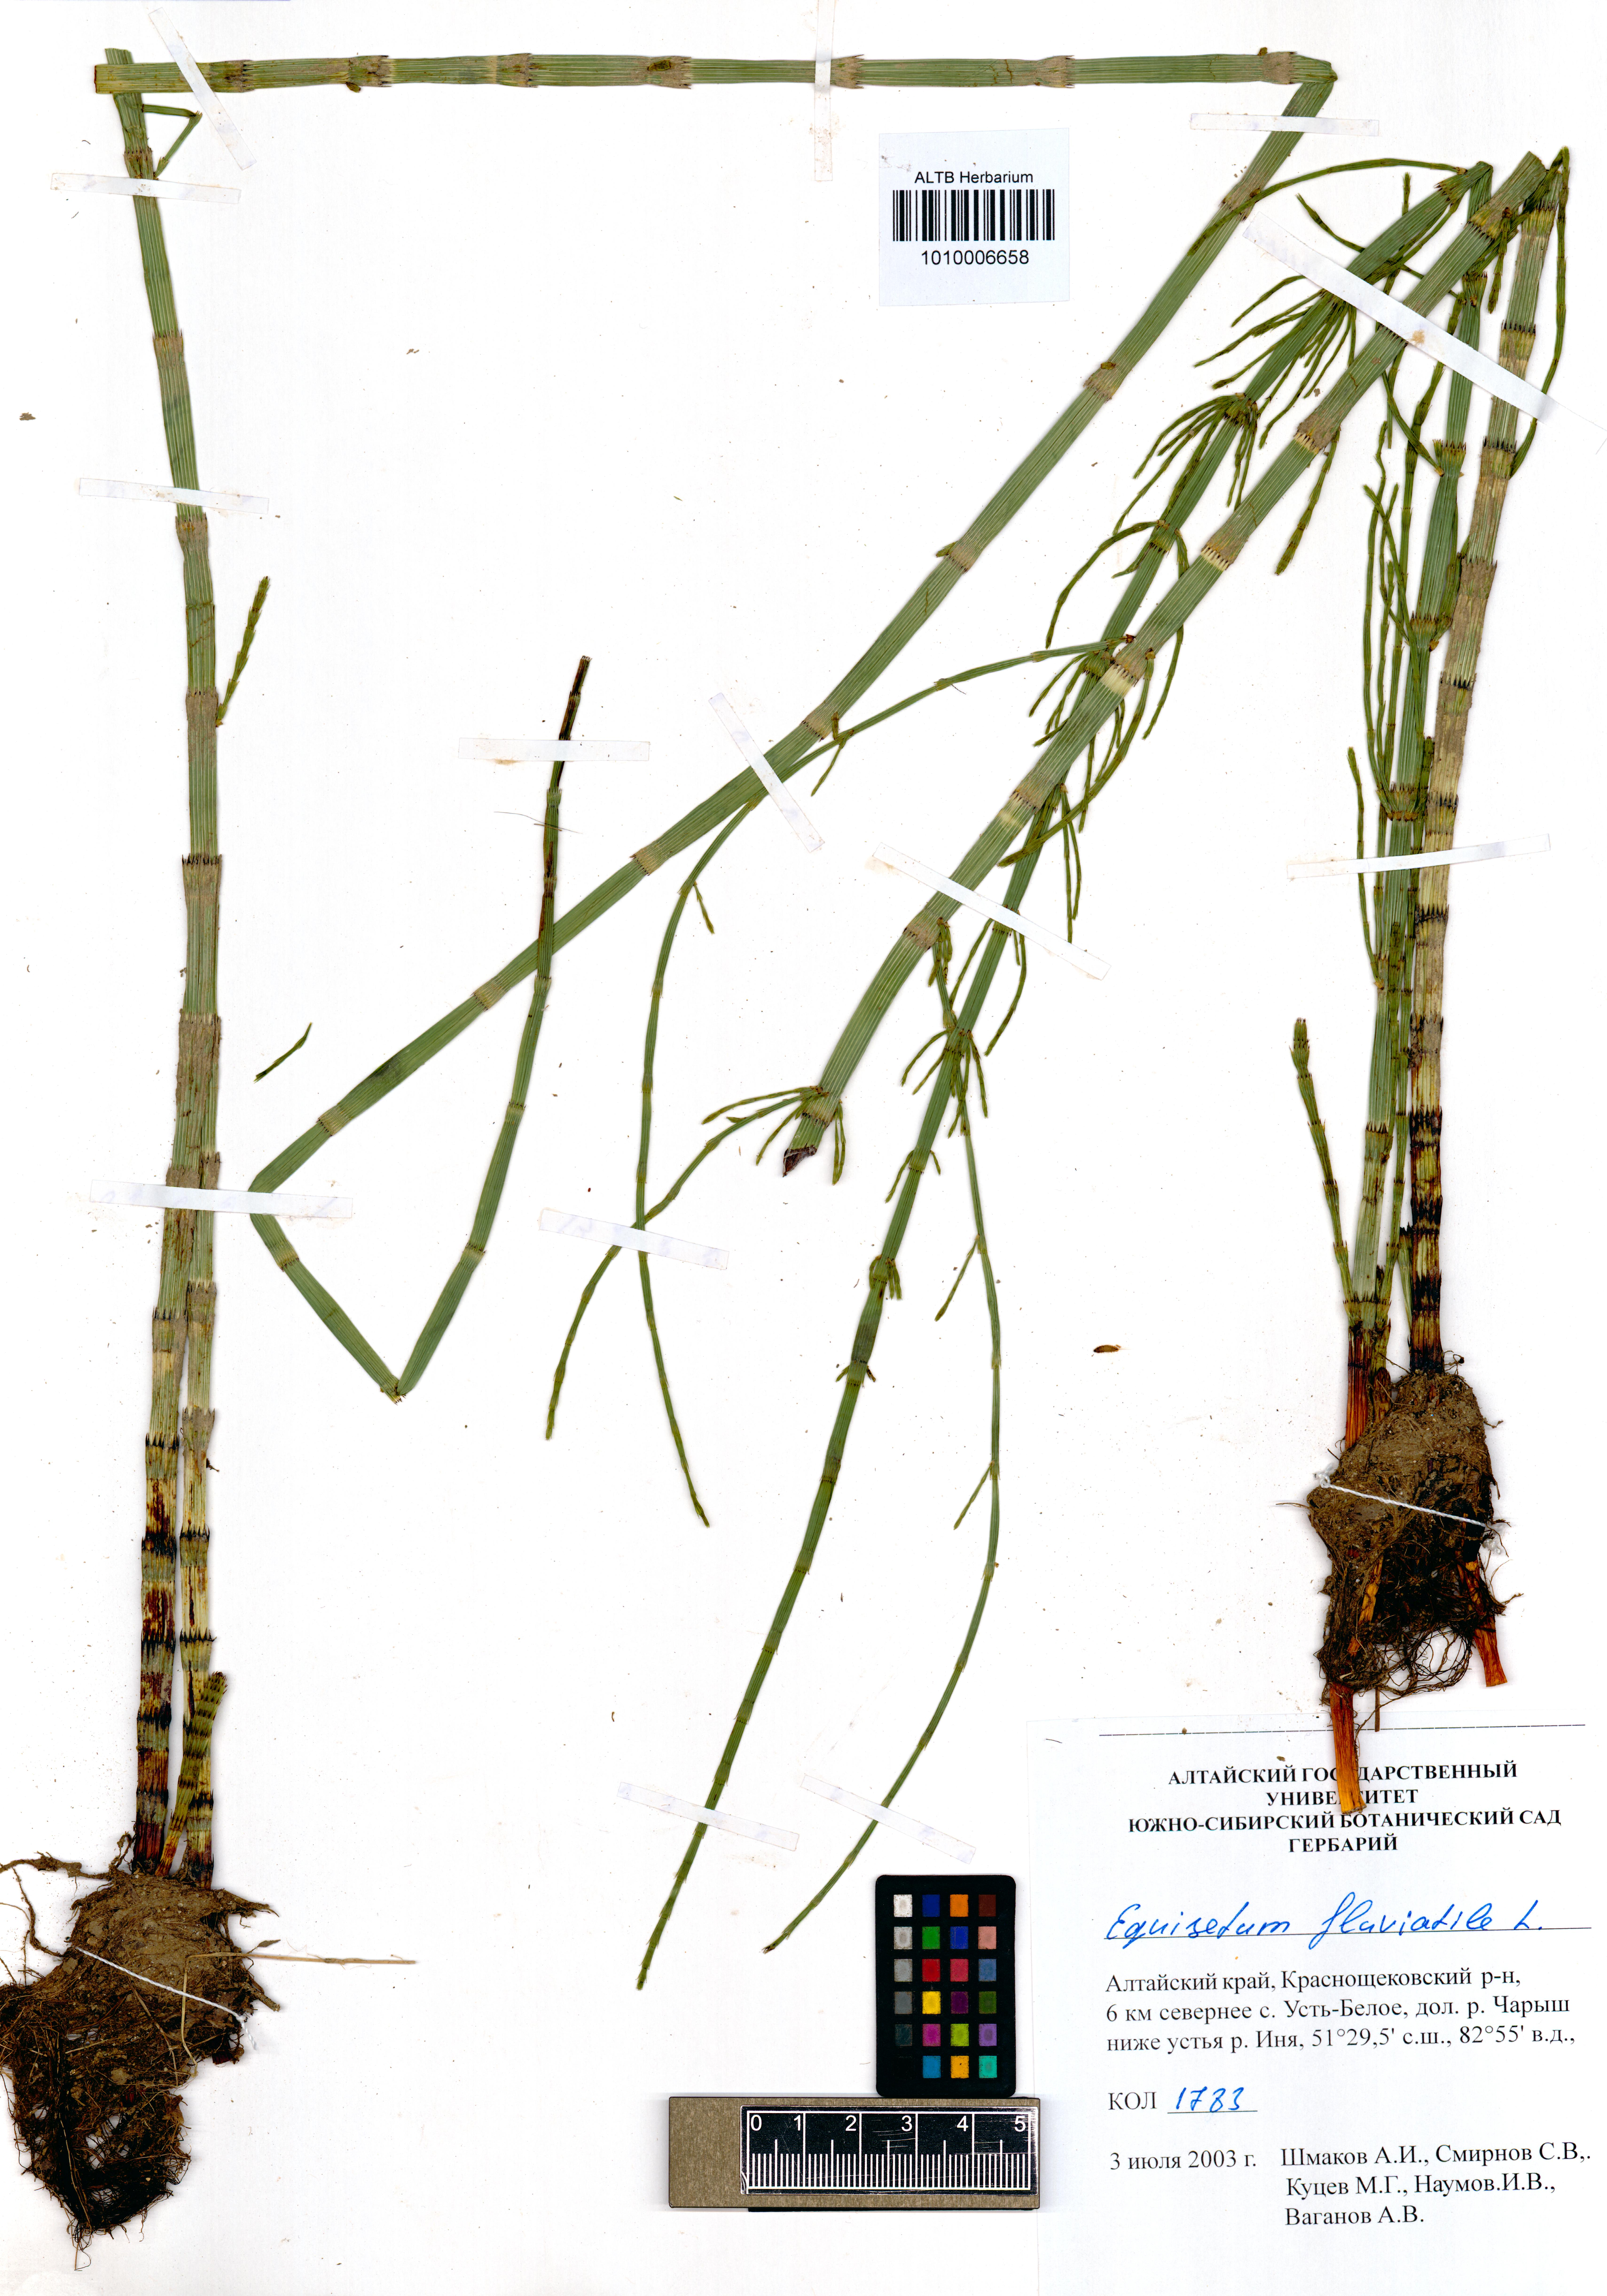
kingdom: Plantae
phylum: Tracheophyta
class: Polypodiopsida
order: Equisetales
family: Equisetaceae
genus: Equisetum
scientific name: Equisetum fluviatile
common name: Water horsetail
